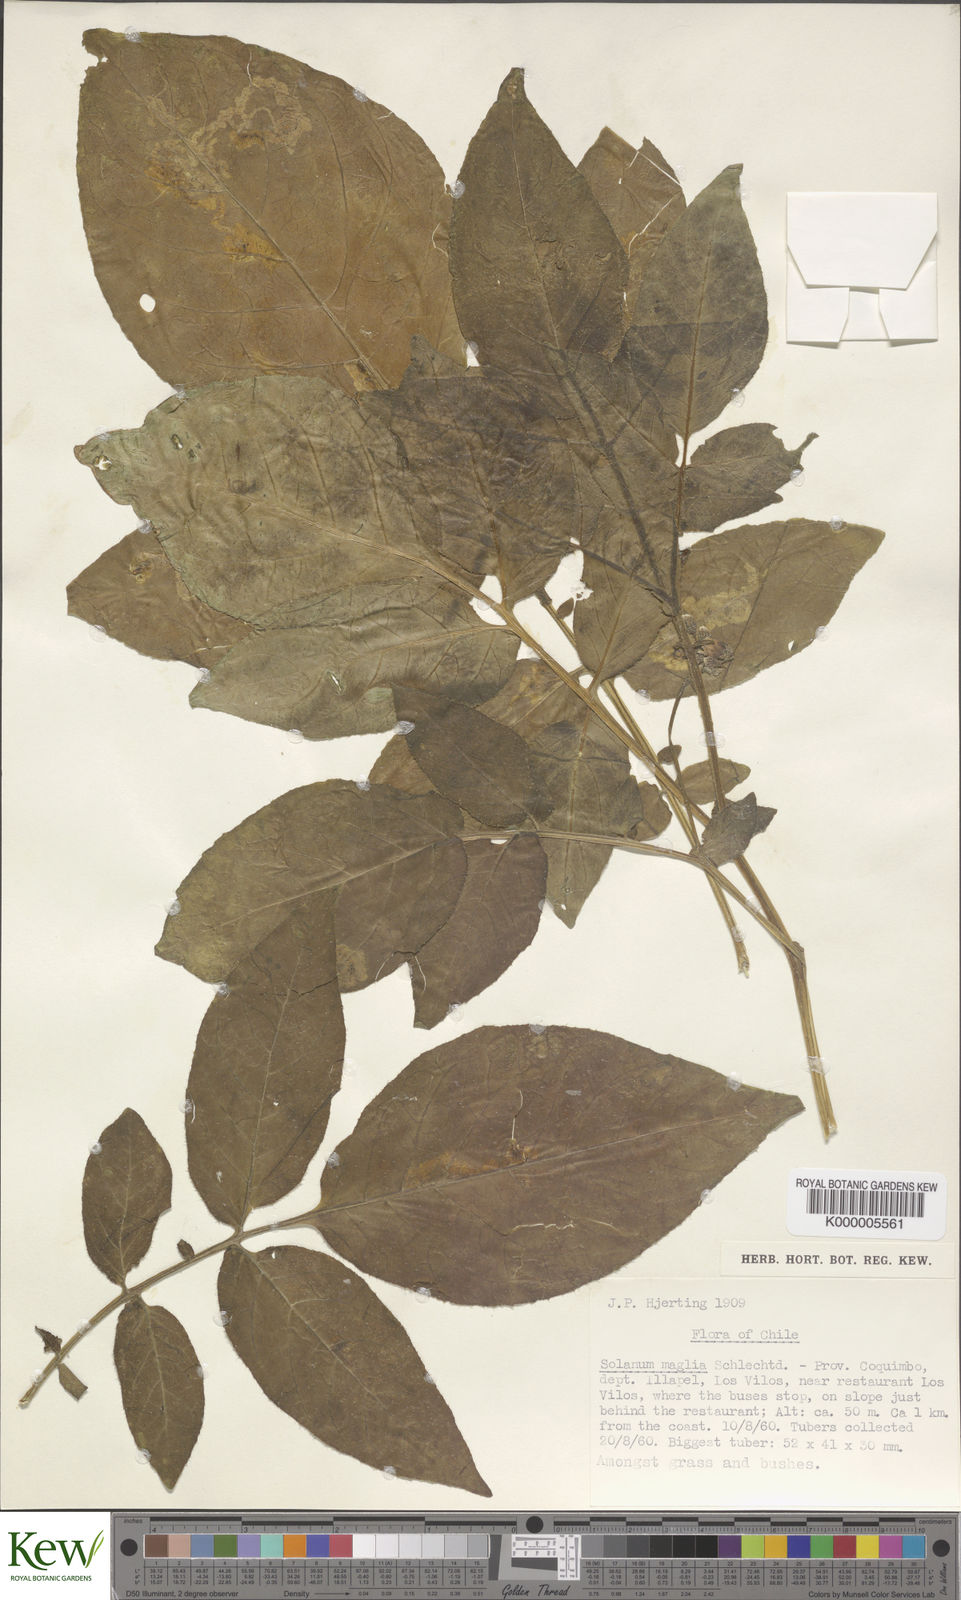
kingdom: Plantae
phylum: Tracheophyta
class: Magnoliopsida
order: Solanales
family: Solanaceae
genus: Solanum
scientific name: Solanum maglia
